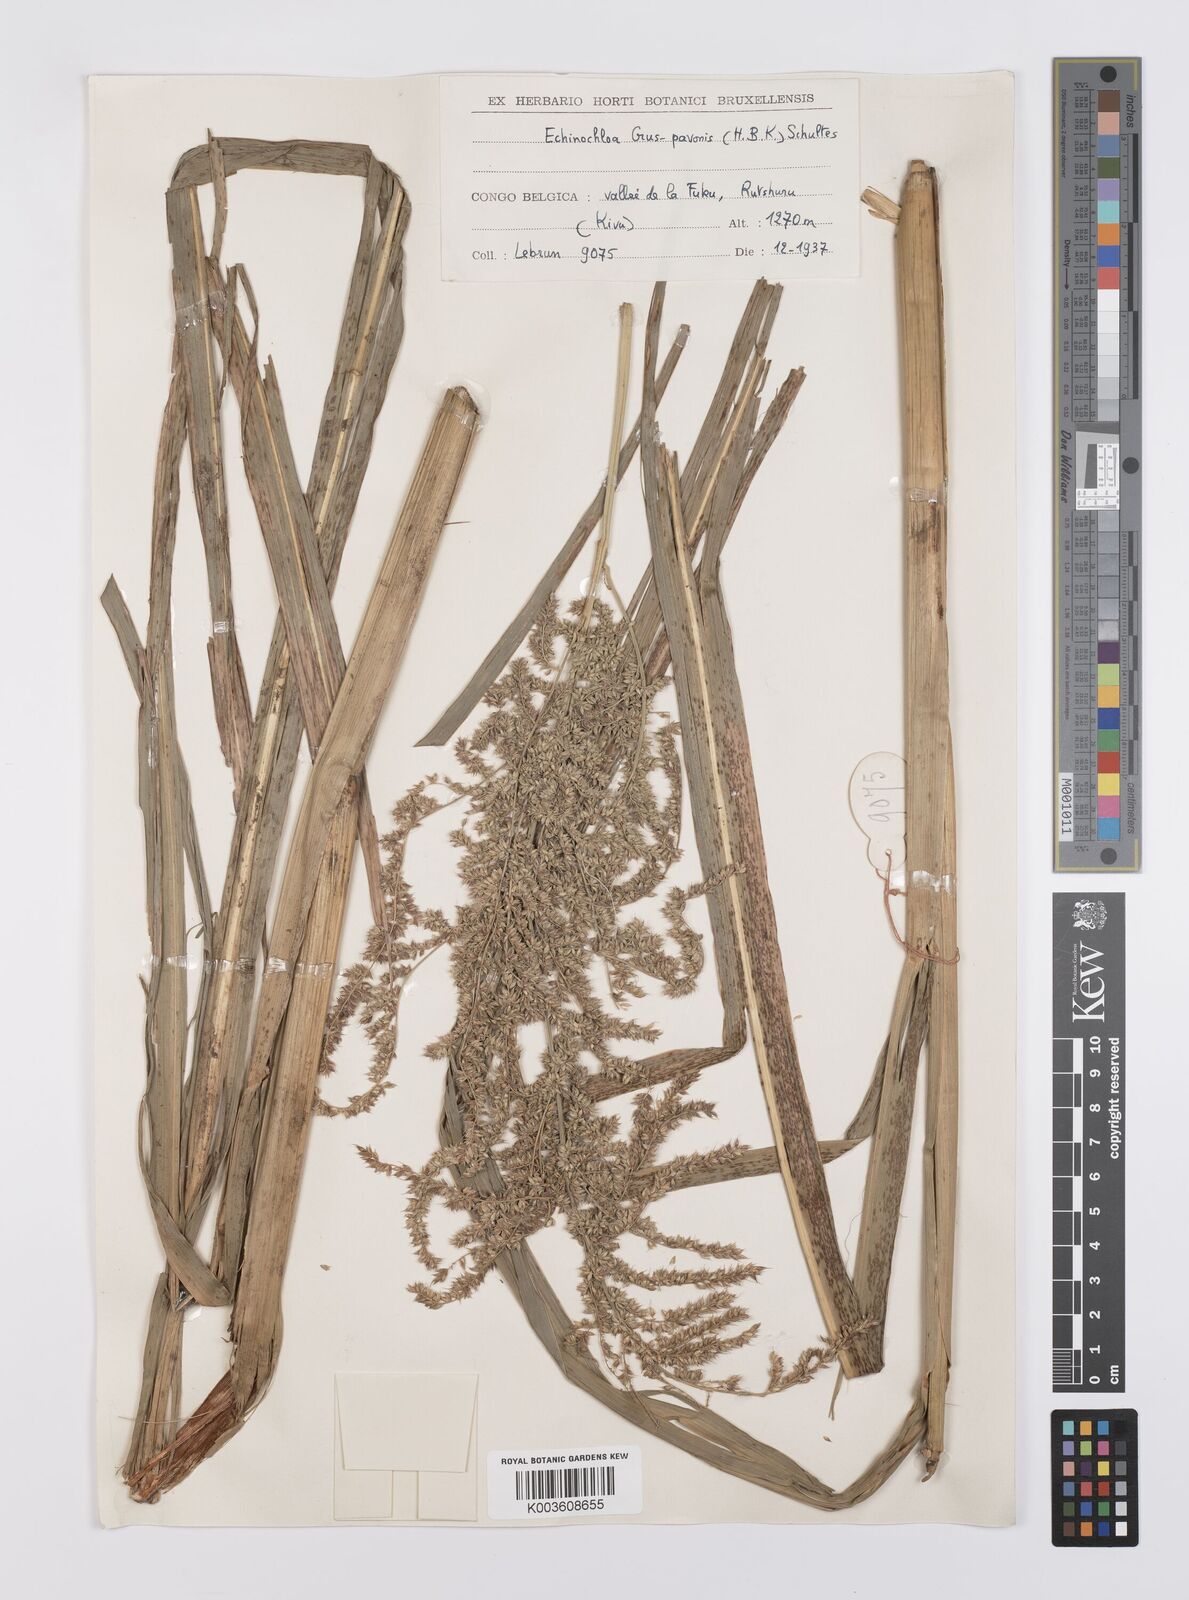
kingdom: Plantae
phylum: Tracheophyta
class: Liliopsida
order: Poales
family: Poaceae
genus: Echinochloa
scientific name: Echinochloa crus-pavonis
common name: Gulf cockspur grass
